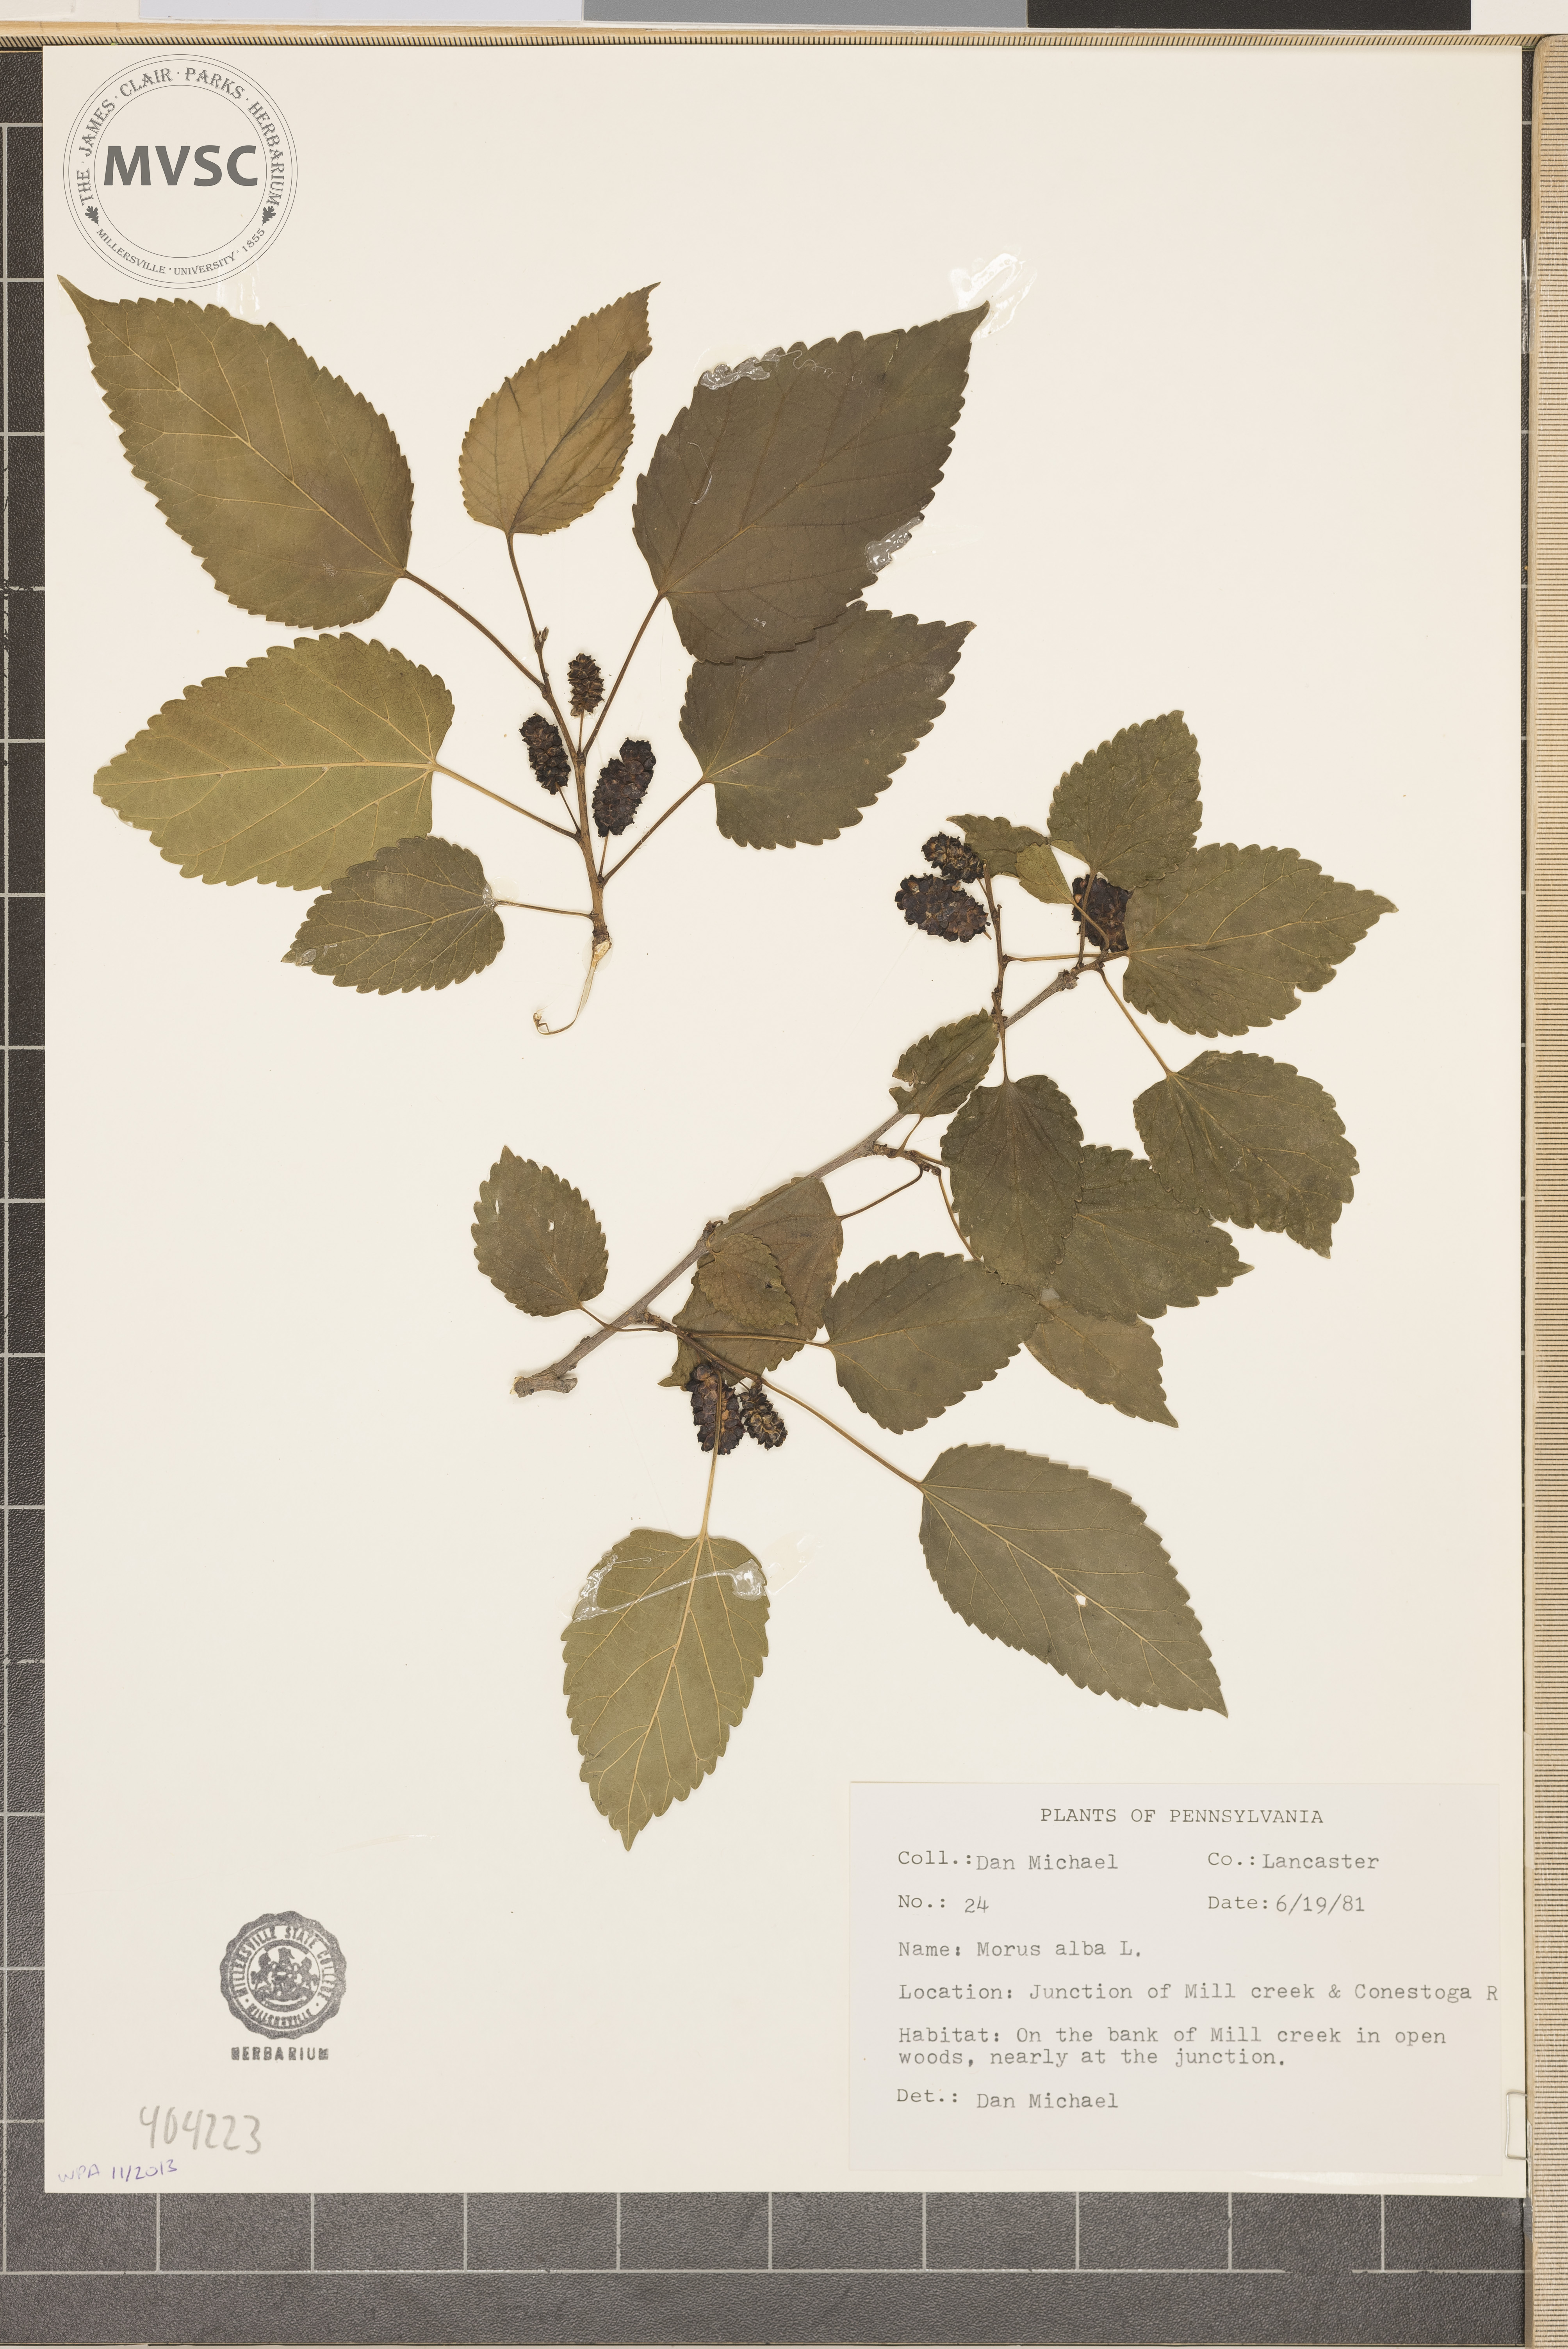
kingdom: Plantae
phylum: Tracheophyta
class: Magnoliopsida
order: Rosales
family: Moraceae
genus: Morus
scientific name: Morus alba
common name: White mulberry
